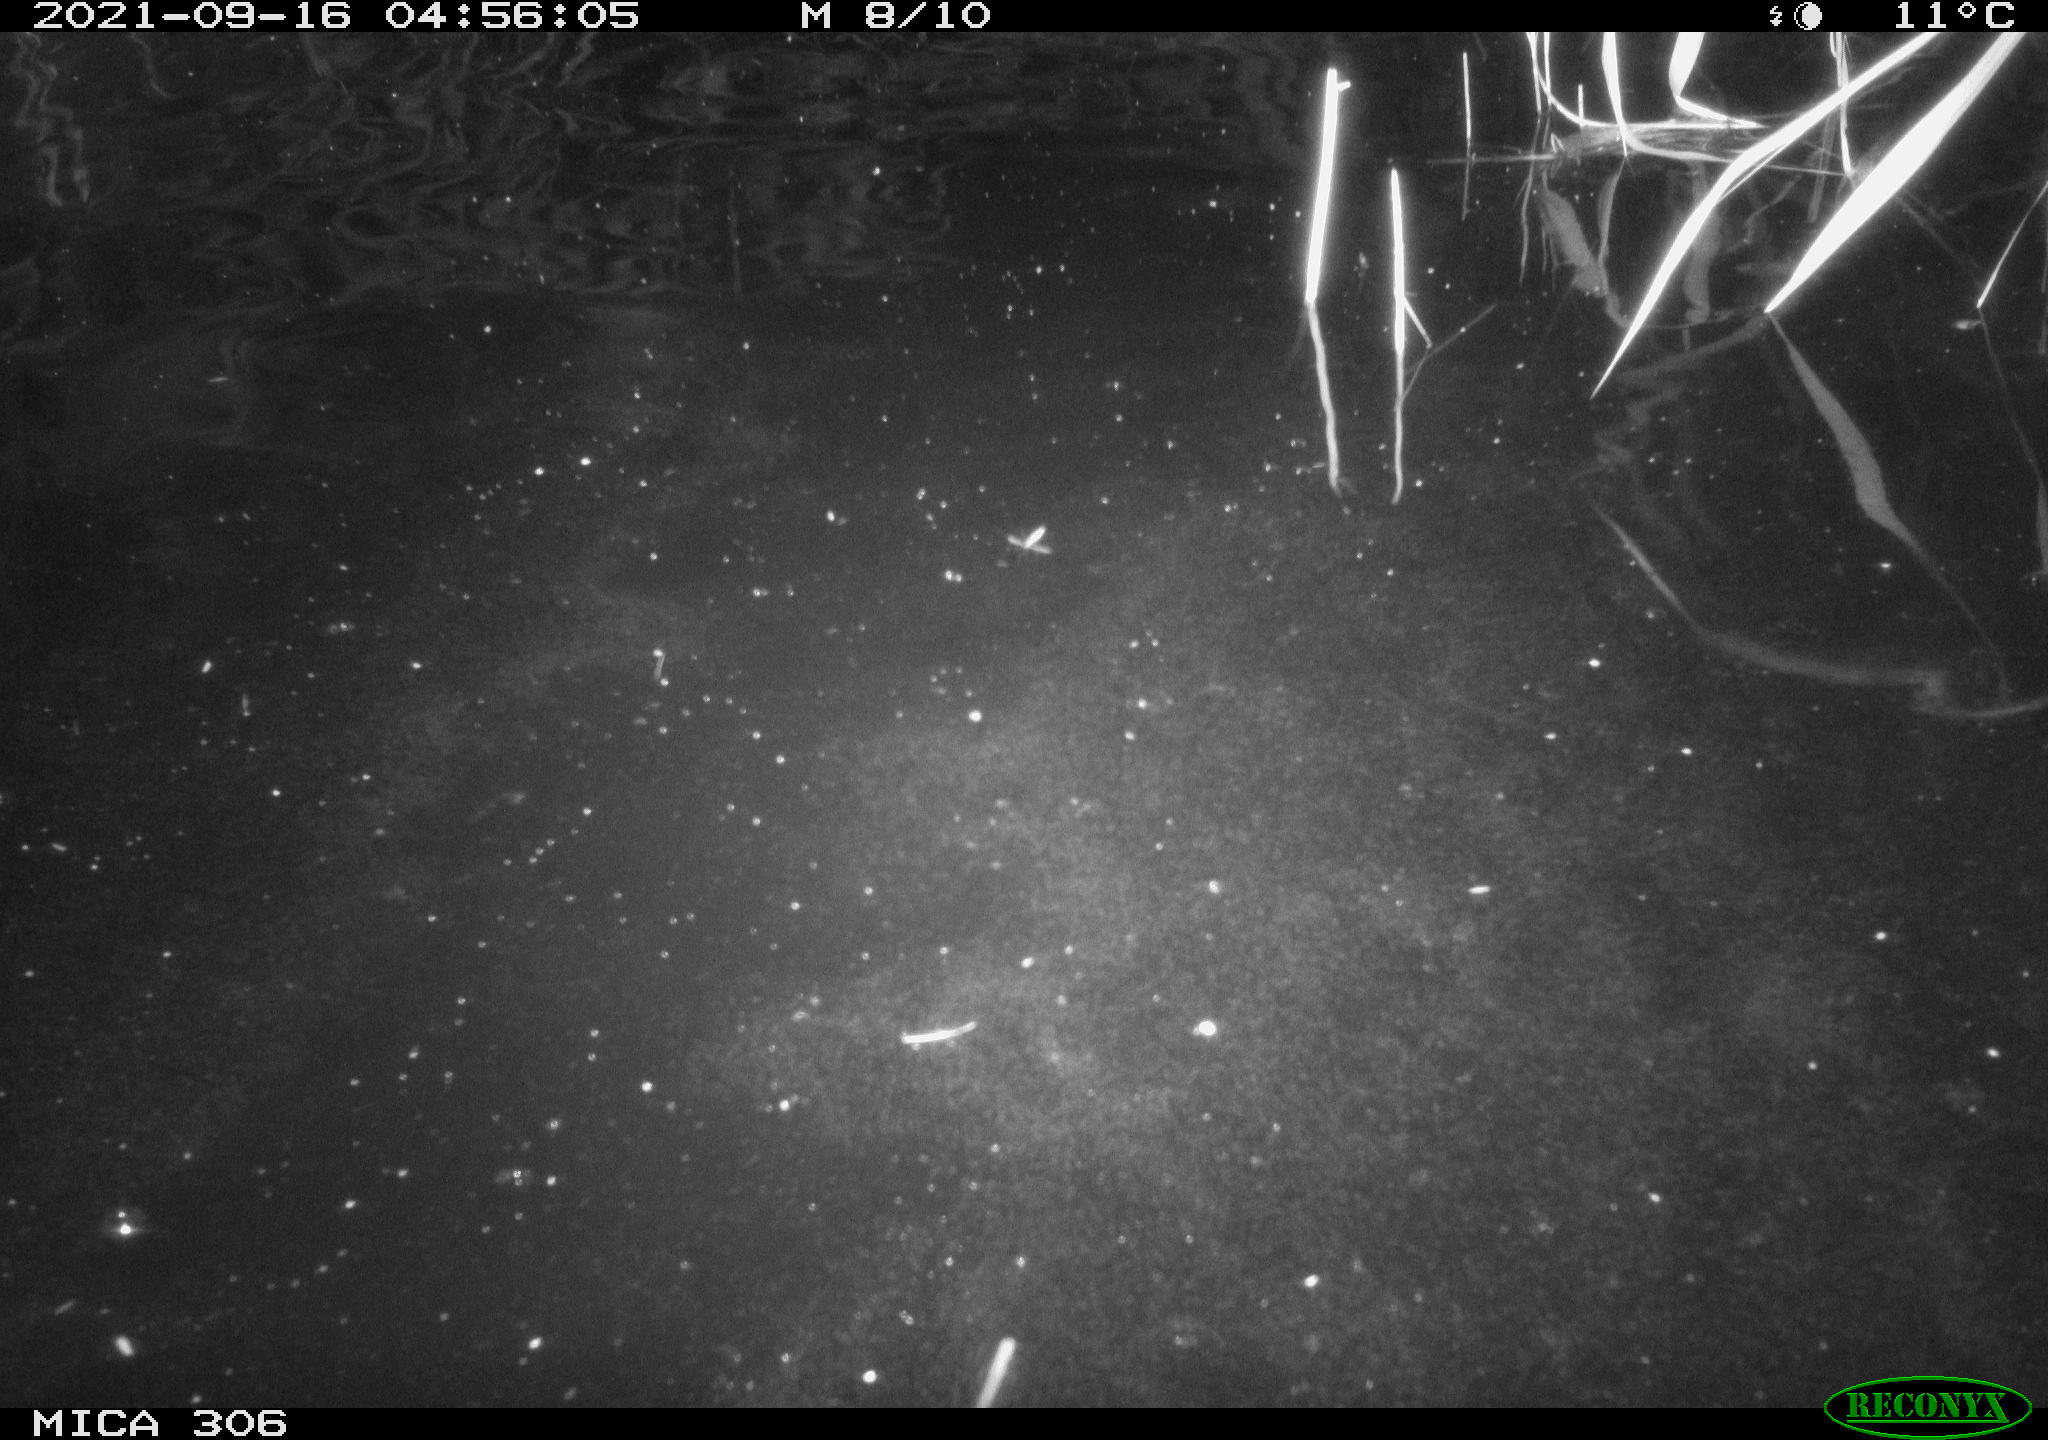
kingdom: Animalia
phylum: Chordata
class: Mammalia
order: Rodentia
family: Cricetidae
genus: Ondatra
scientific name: Ondatra zibethicus
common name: Muskrat
